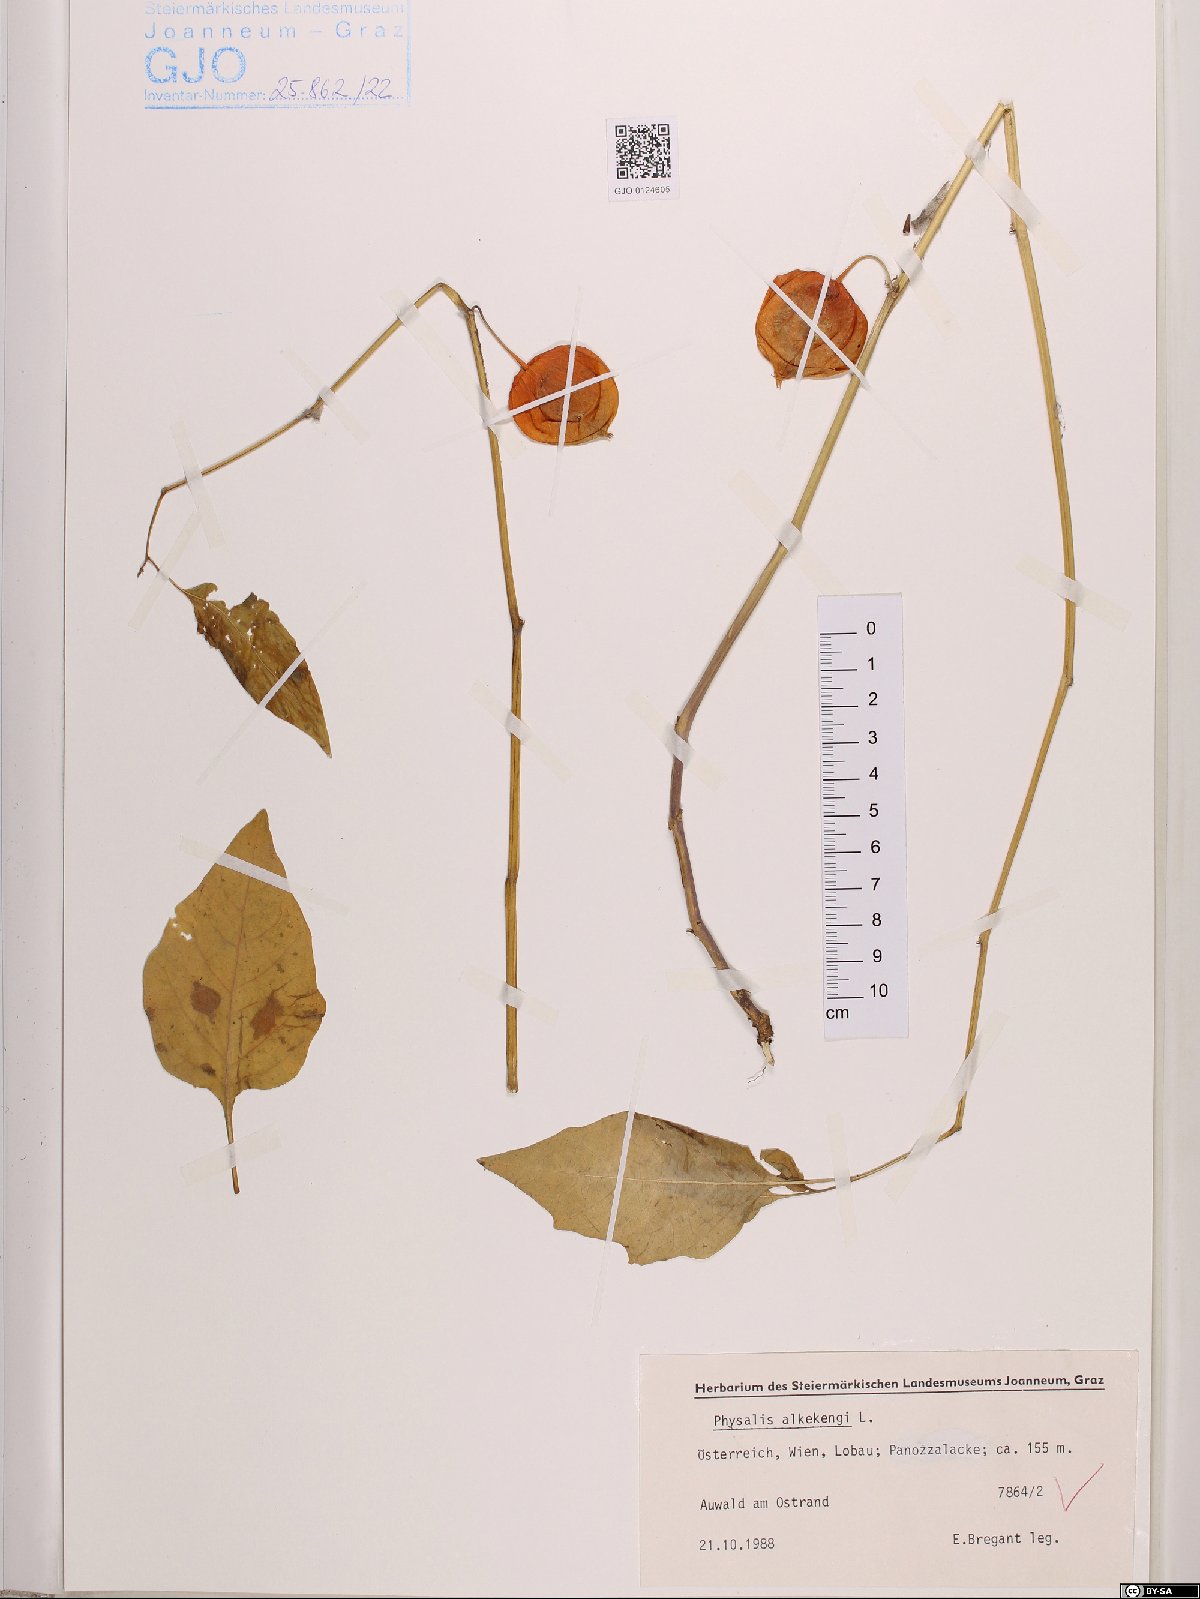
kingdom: Plantae
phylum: Tracheophyta
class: Magnoliopsida
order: Solanales
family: Solanaceae
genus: Alkekengi
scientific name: Alkekengi officinarum
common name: Japanese-lantern
